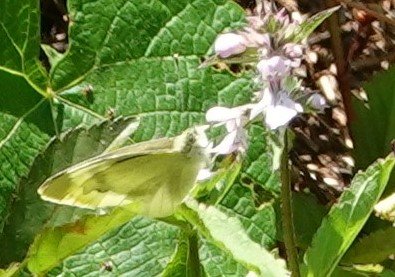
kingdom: Animalia
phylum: Arthropoda
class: Insecta
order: Lepidoptera
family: Pieridae
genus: Pieris
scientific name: Pieris rapae
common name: Cabbage White
